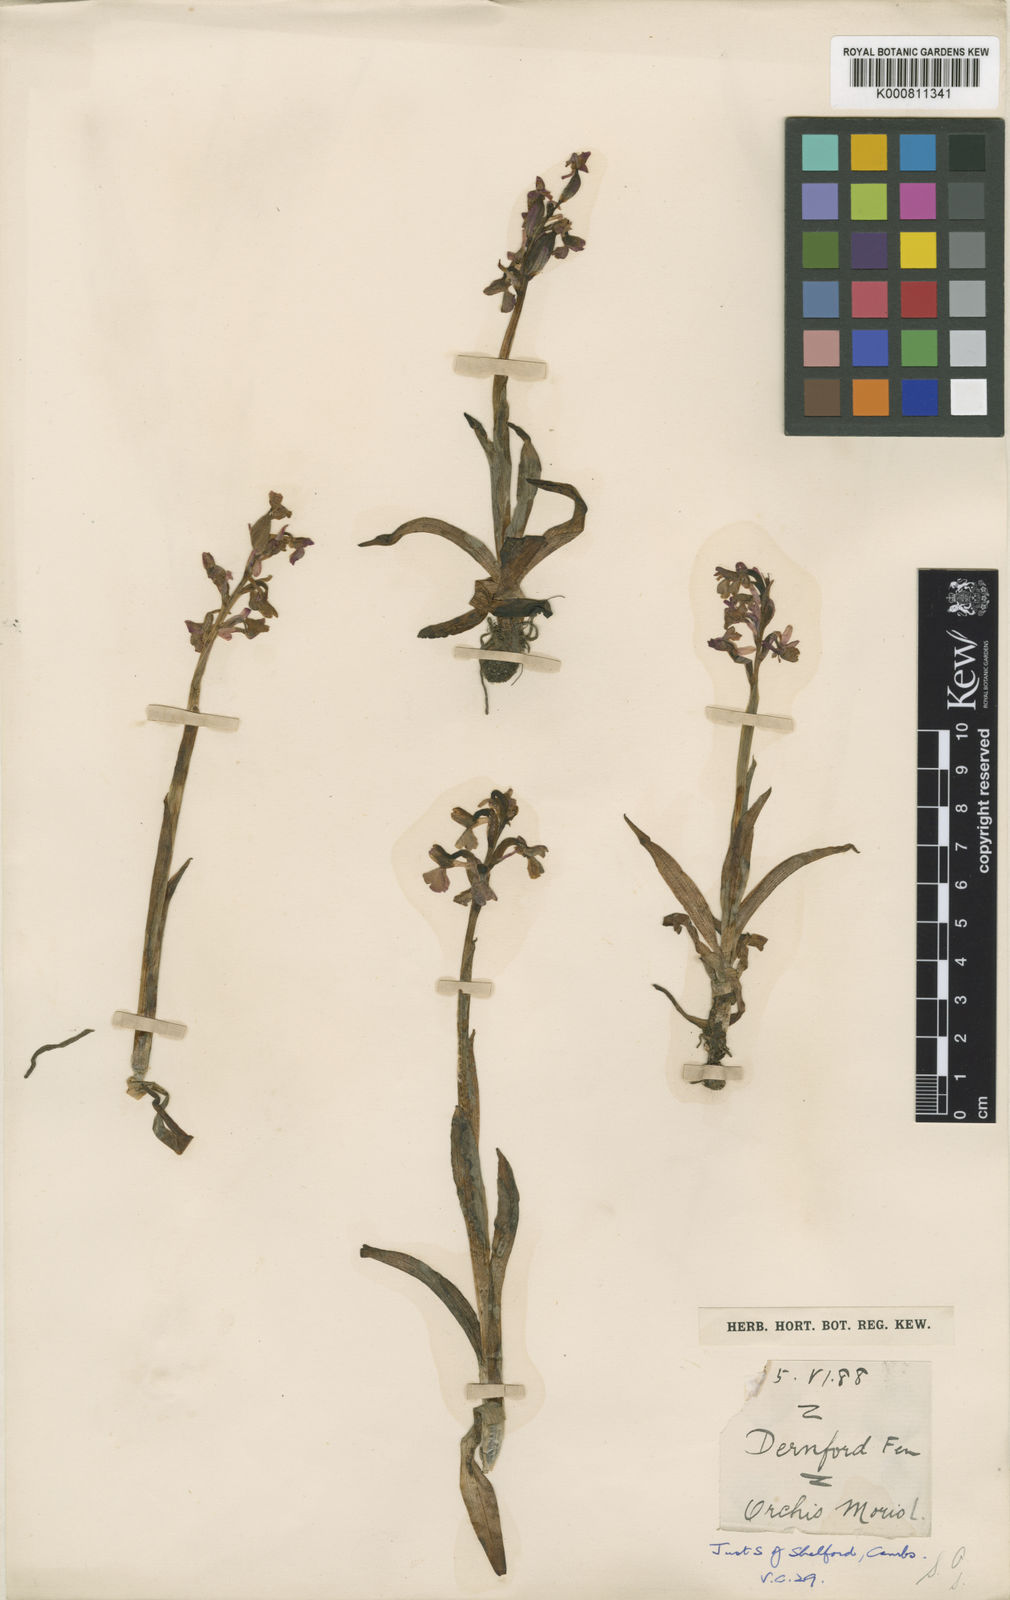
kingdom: Plantae
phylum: Tracheophyta
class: Liliopsida
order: Asparagales
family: Orchidaceae
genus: Anacamptis
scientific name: Anacamptis morio
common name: Green-winged orchid
